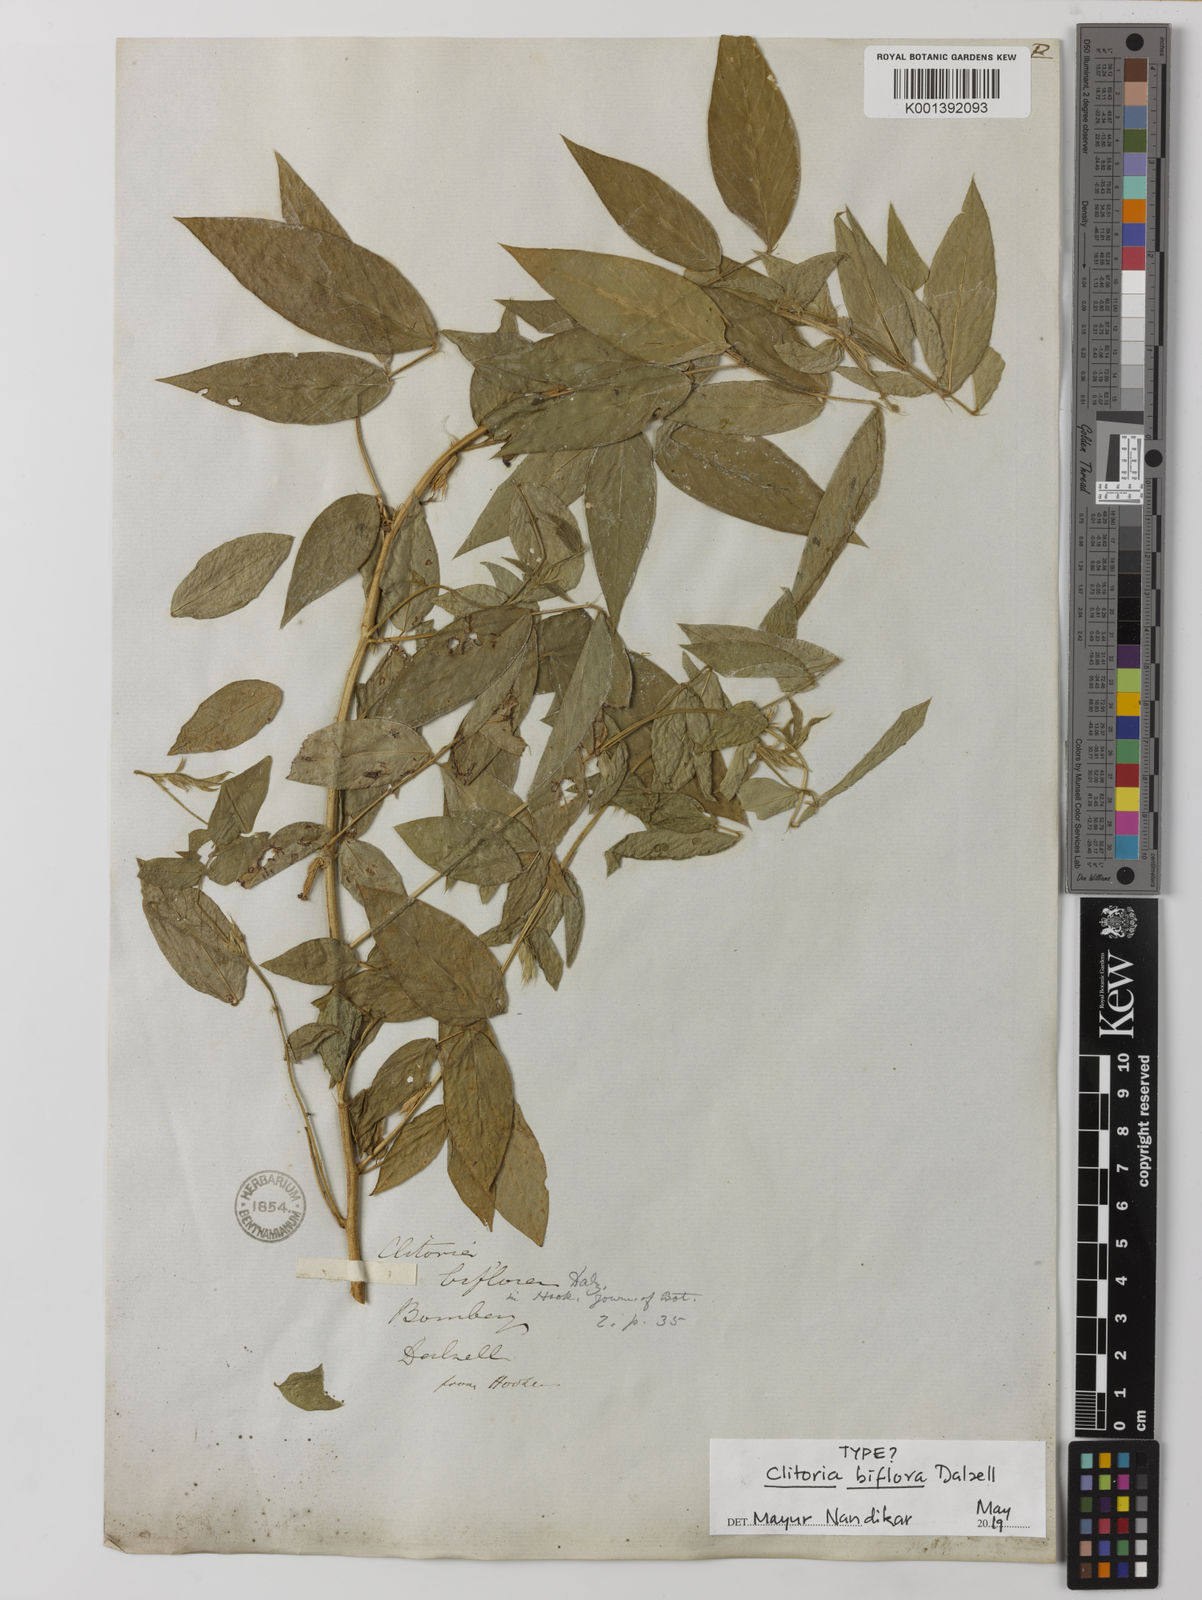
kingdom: Plantae
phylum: Tracheophyta
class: Magnoliopsida
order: Fabales
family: Fabaceae
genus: Clitoria
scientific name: Clitoria annua
